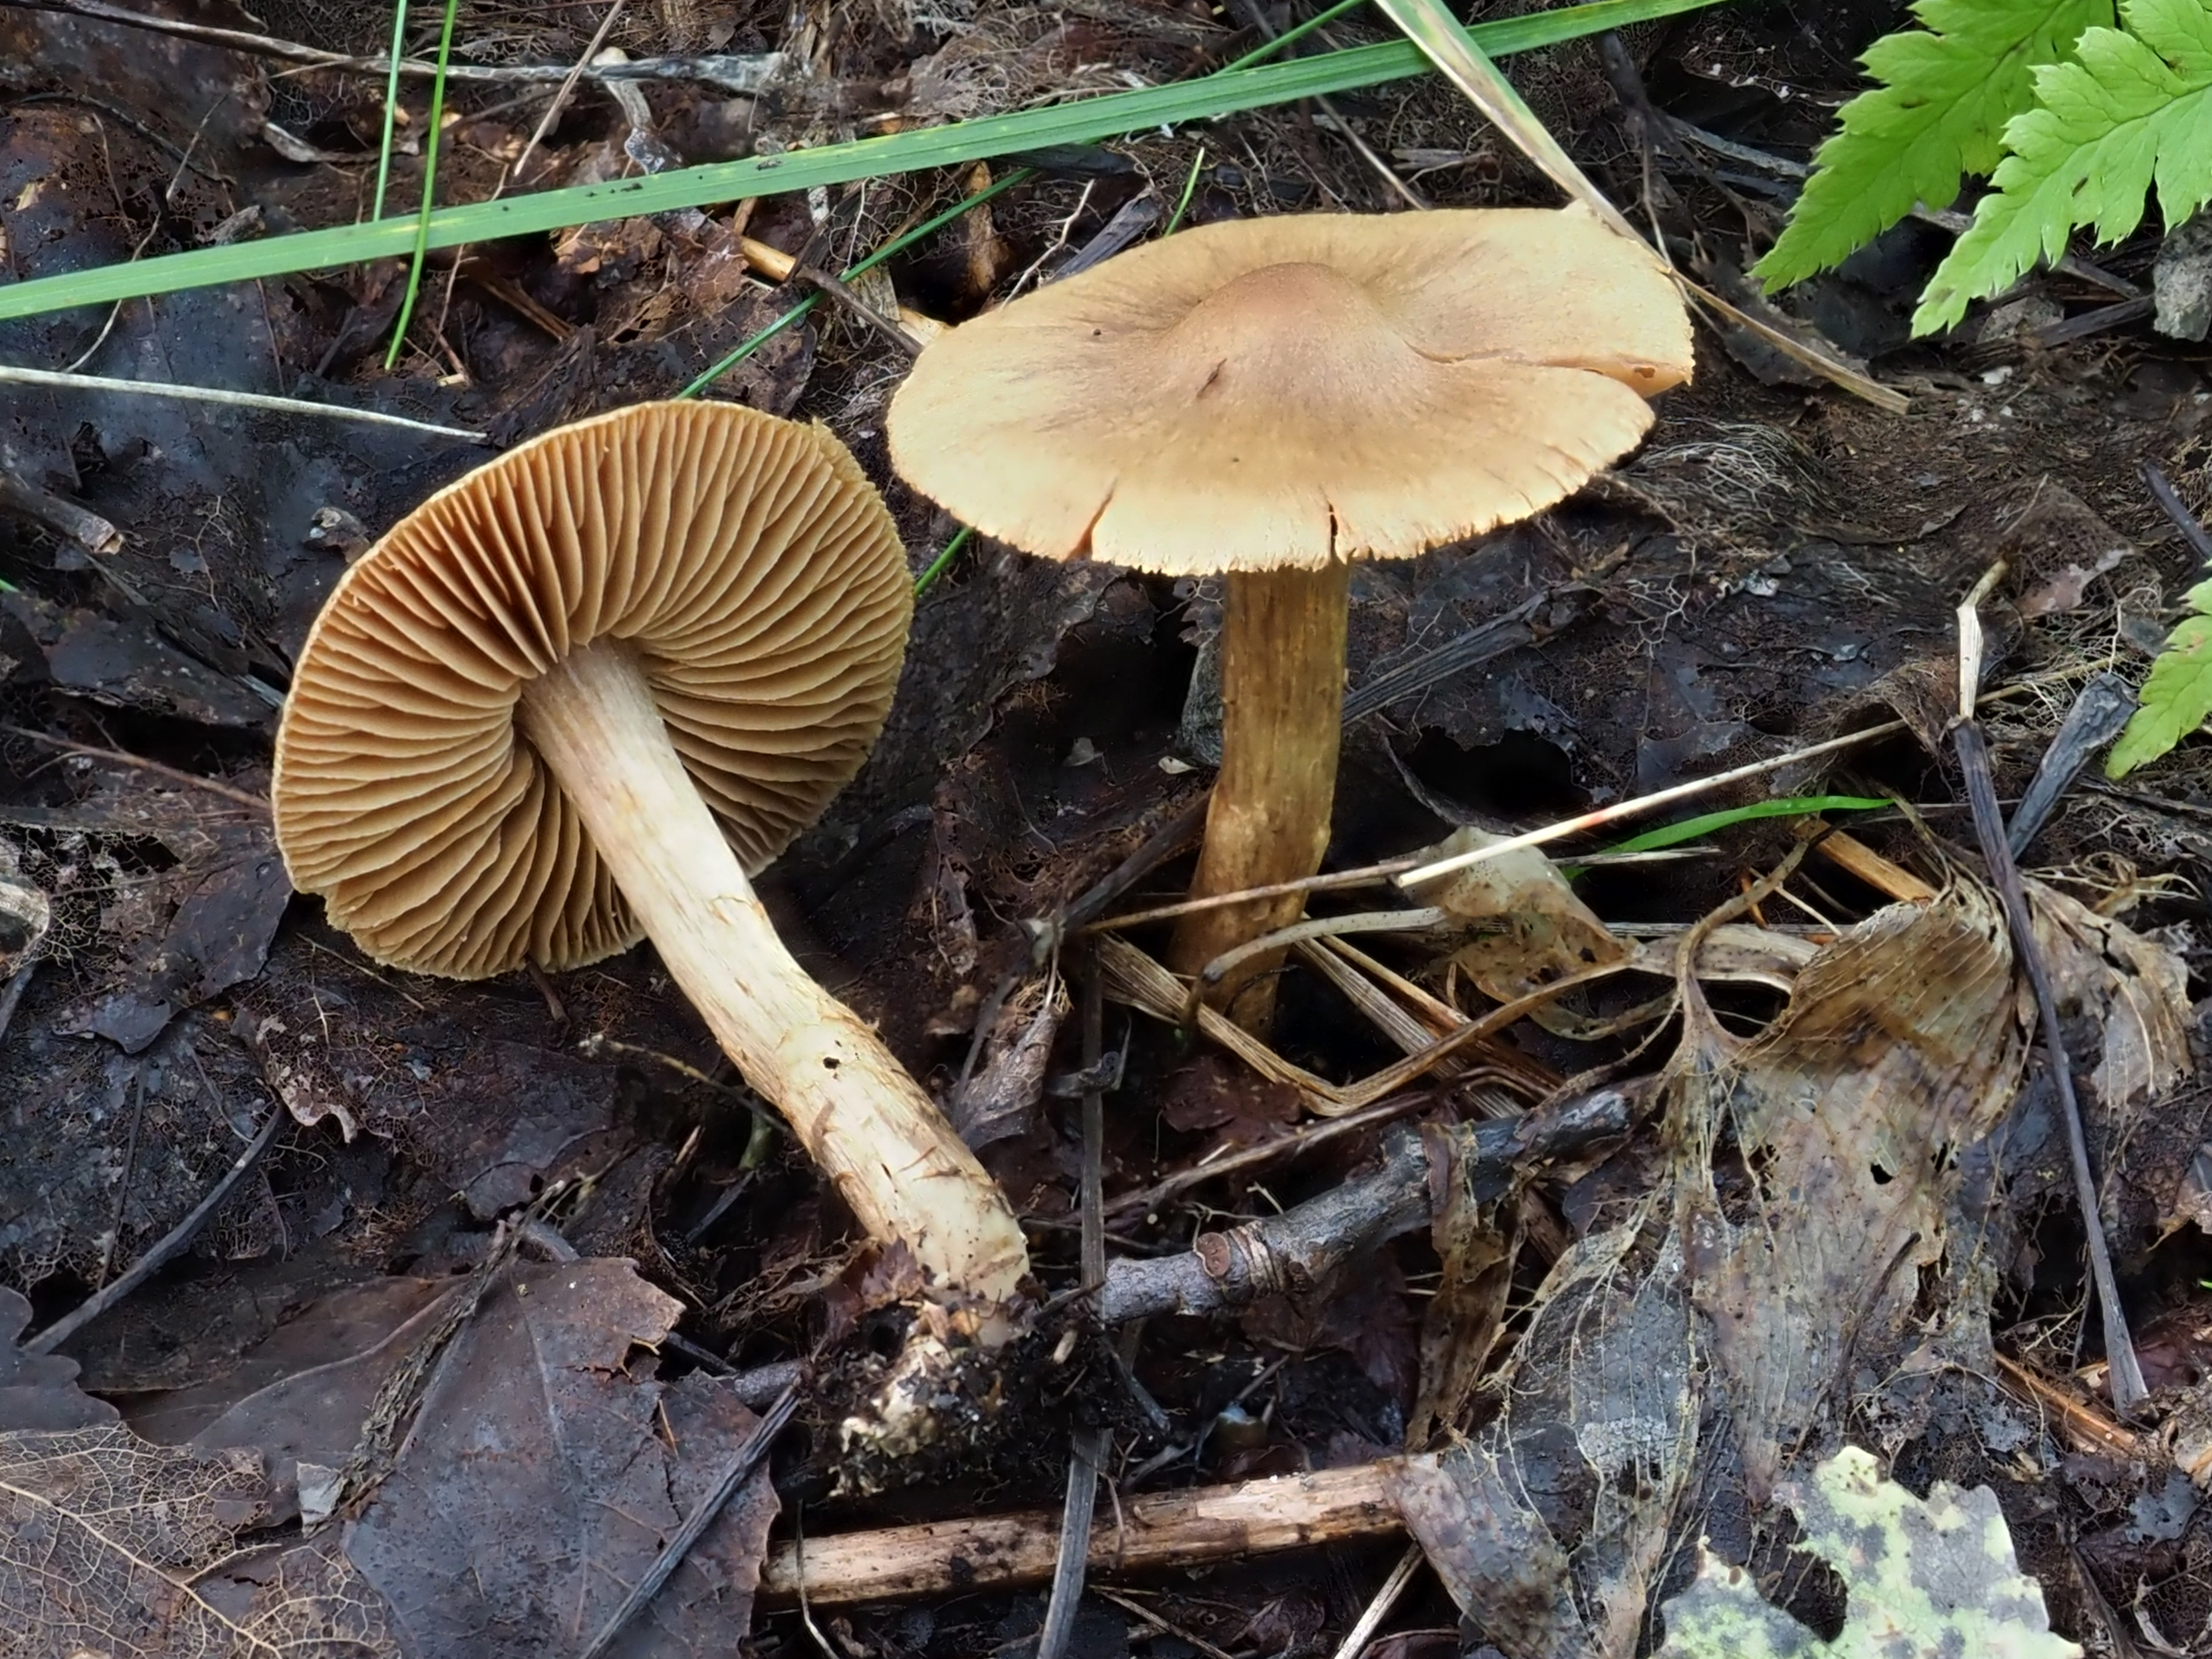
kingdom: Fungi
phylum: Basidiomycota
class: Agaricomycetes
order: Agaricales
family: Cortinariaceae
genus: Cortinarius
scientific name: Cortinarius
